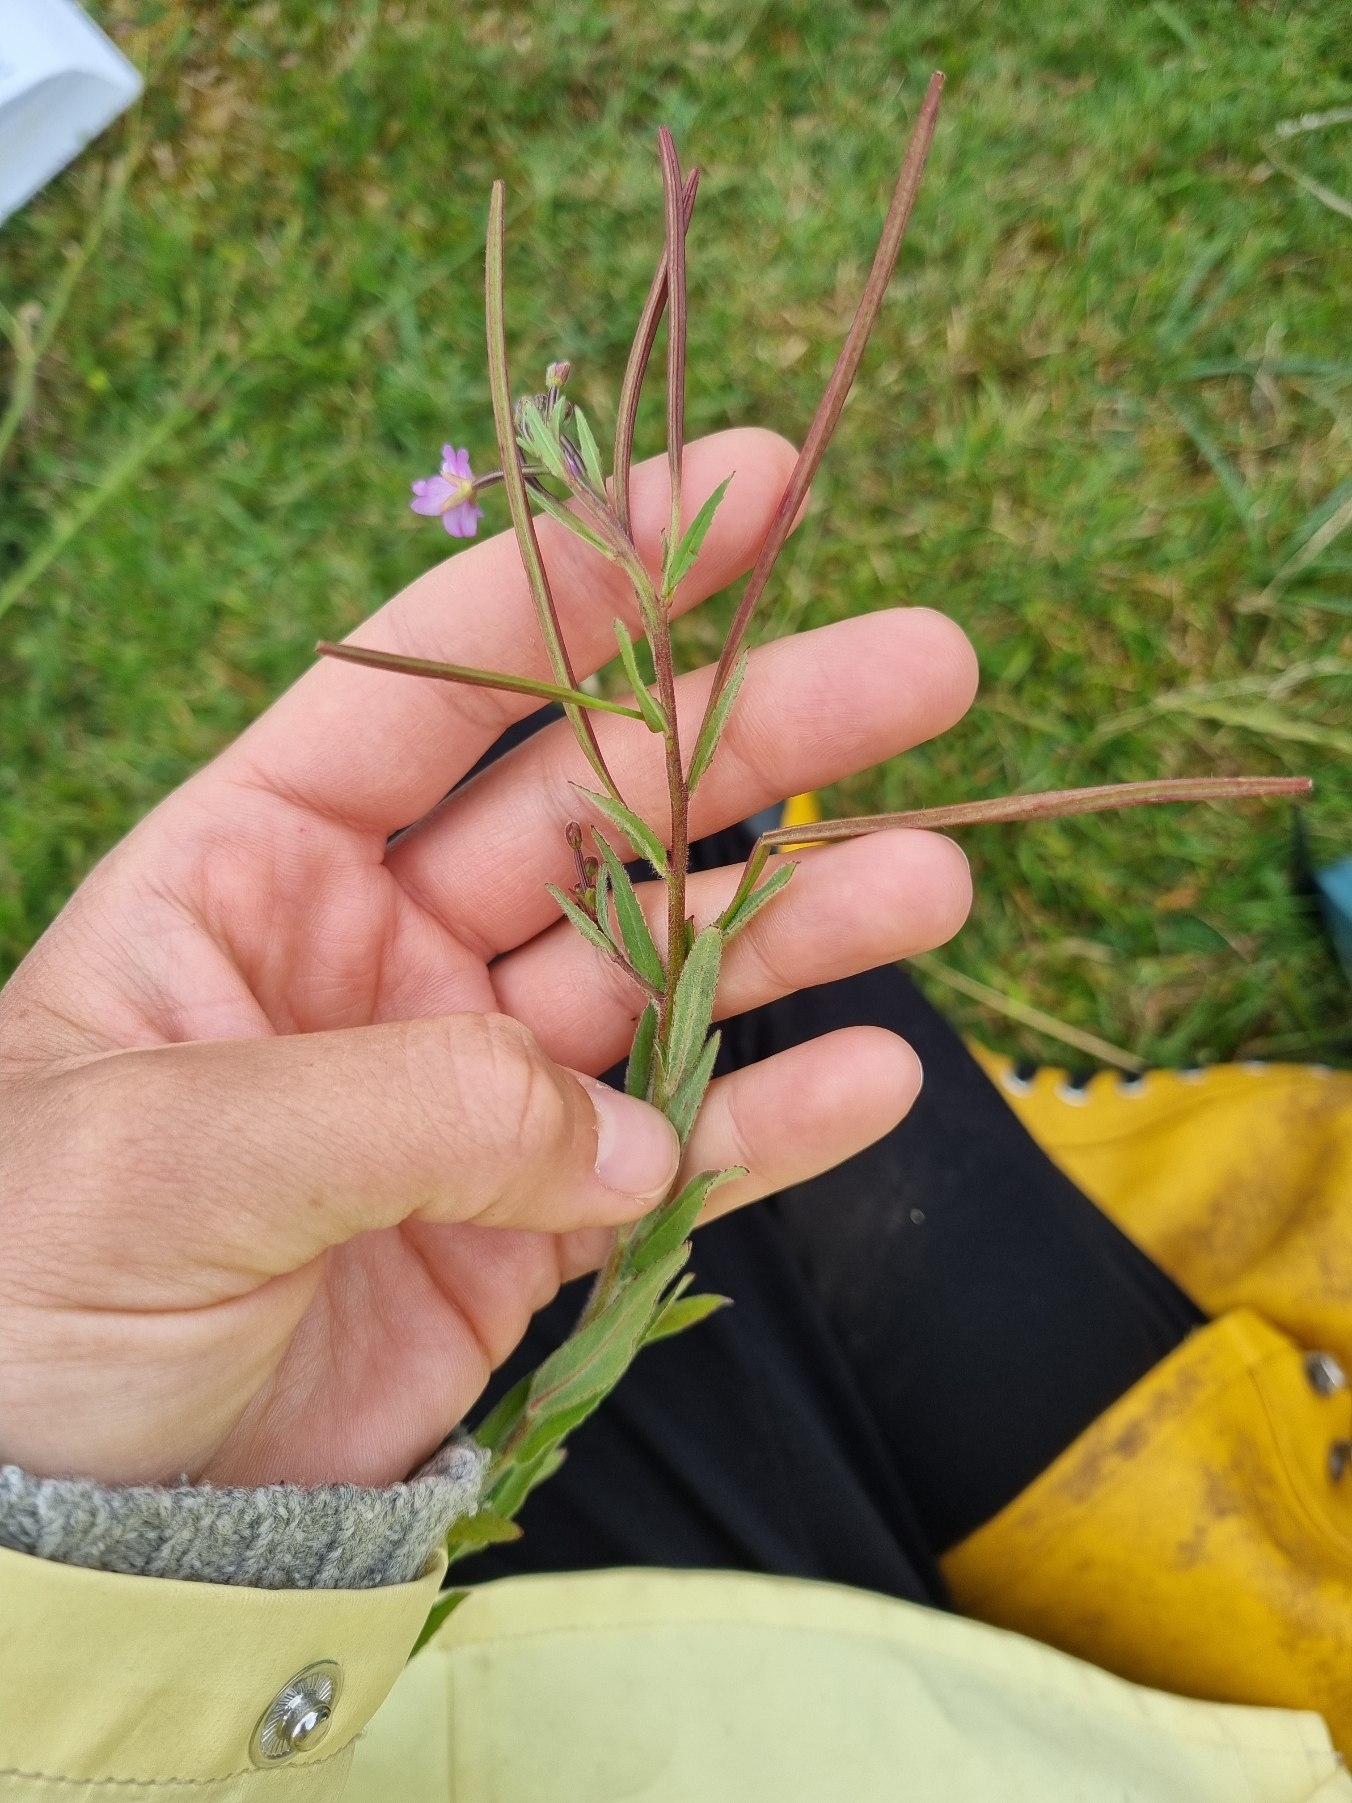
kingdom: Plantae
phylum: Tracheophyta
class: Magnoliopsida
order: Myrtales
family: Onagraceae
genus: Epilobium
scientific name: Epilobium parviflorum
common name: Dunet dueurt
